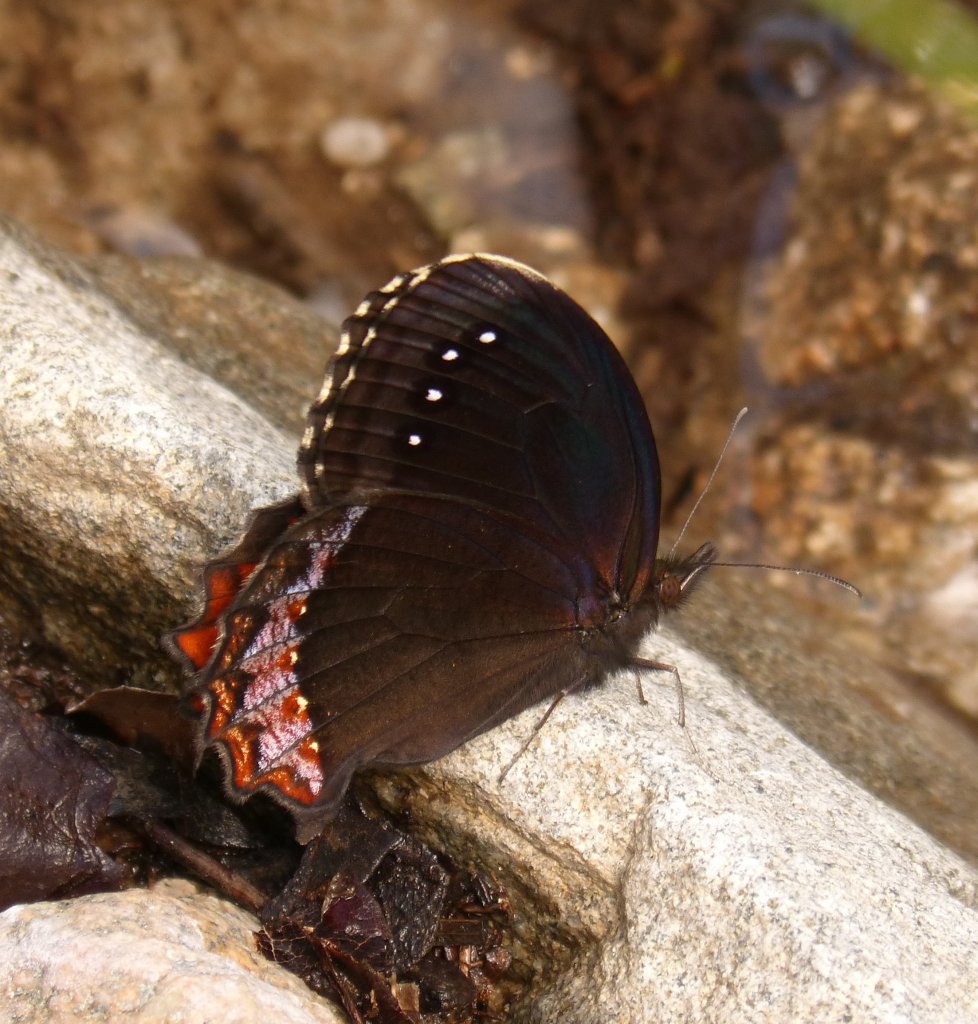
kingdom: Animalia
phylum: Arthropoda
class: Insecta
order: Lepidoptera
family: Nymphalidae
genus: Gyrocheilus
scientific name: Gyrocheilus patrobas
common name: Red-bordered Satyr
